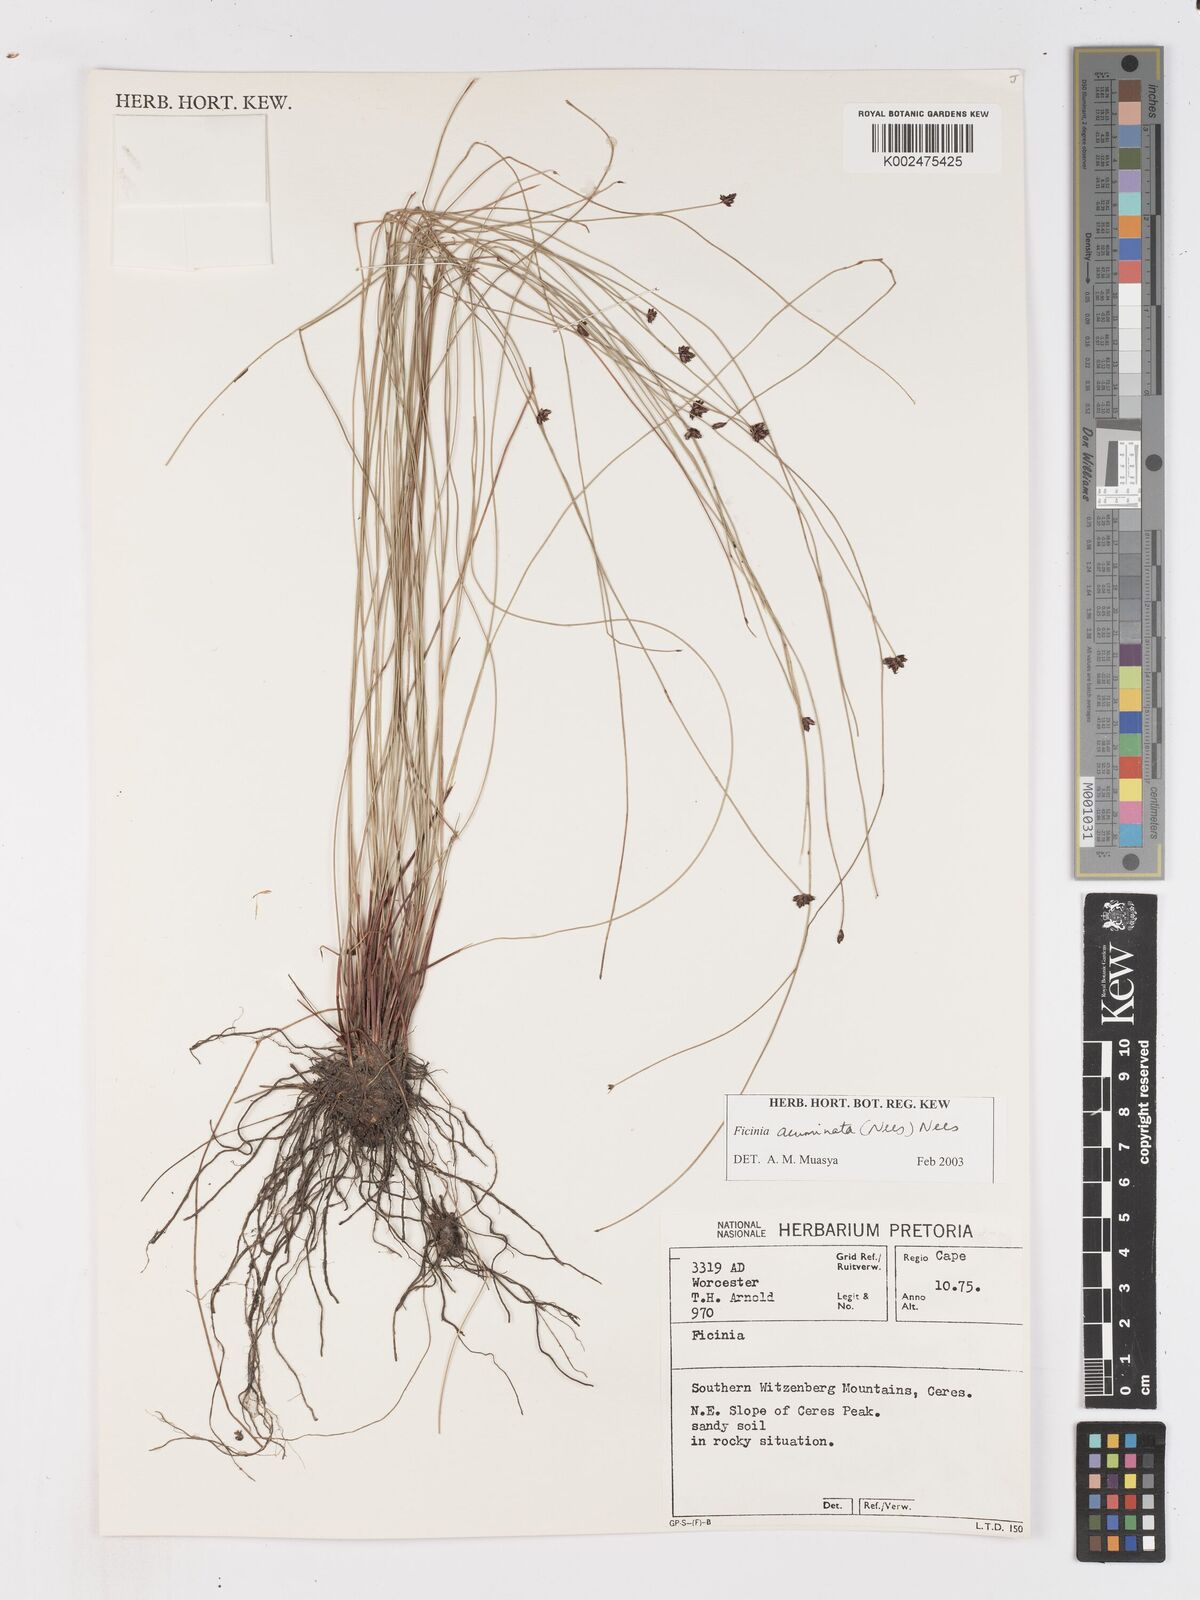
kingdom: Plantae
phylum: Tracheophyta
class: Liliopsida
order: Poales
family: Cyperaceae
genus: Ficinia
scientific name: Ficinia acuminata
